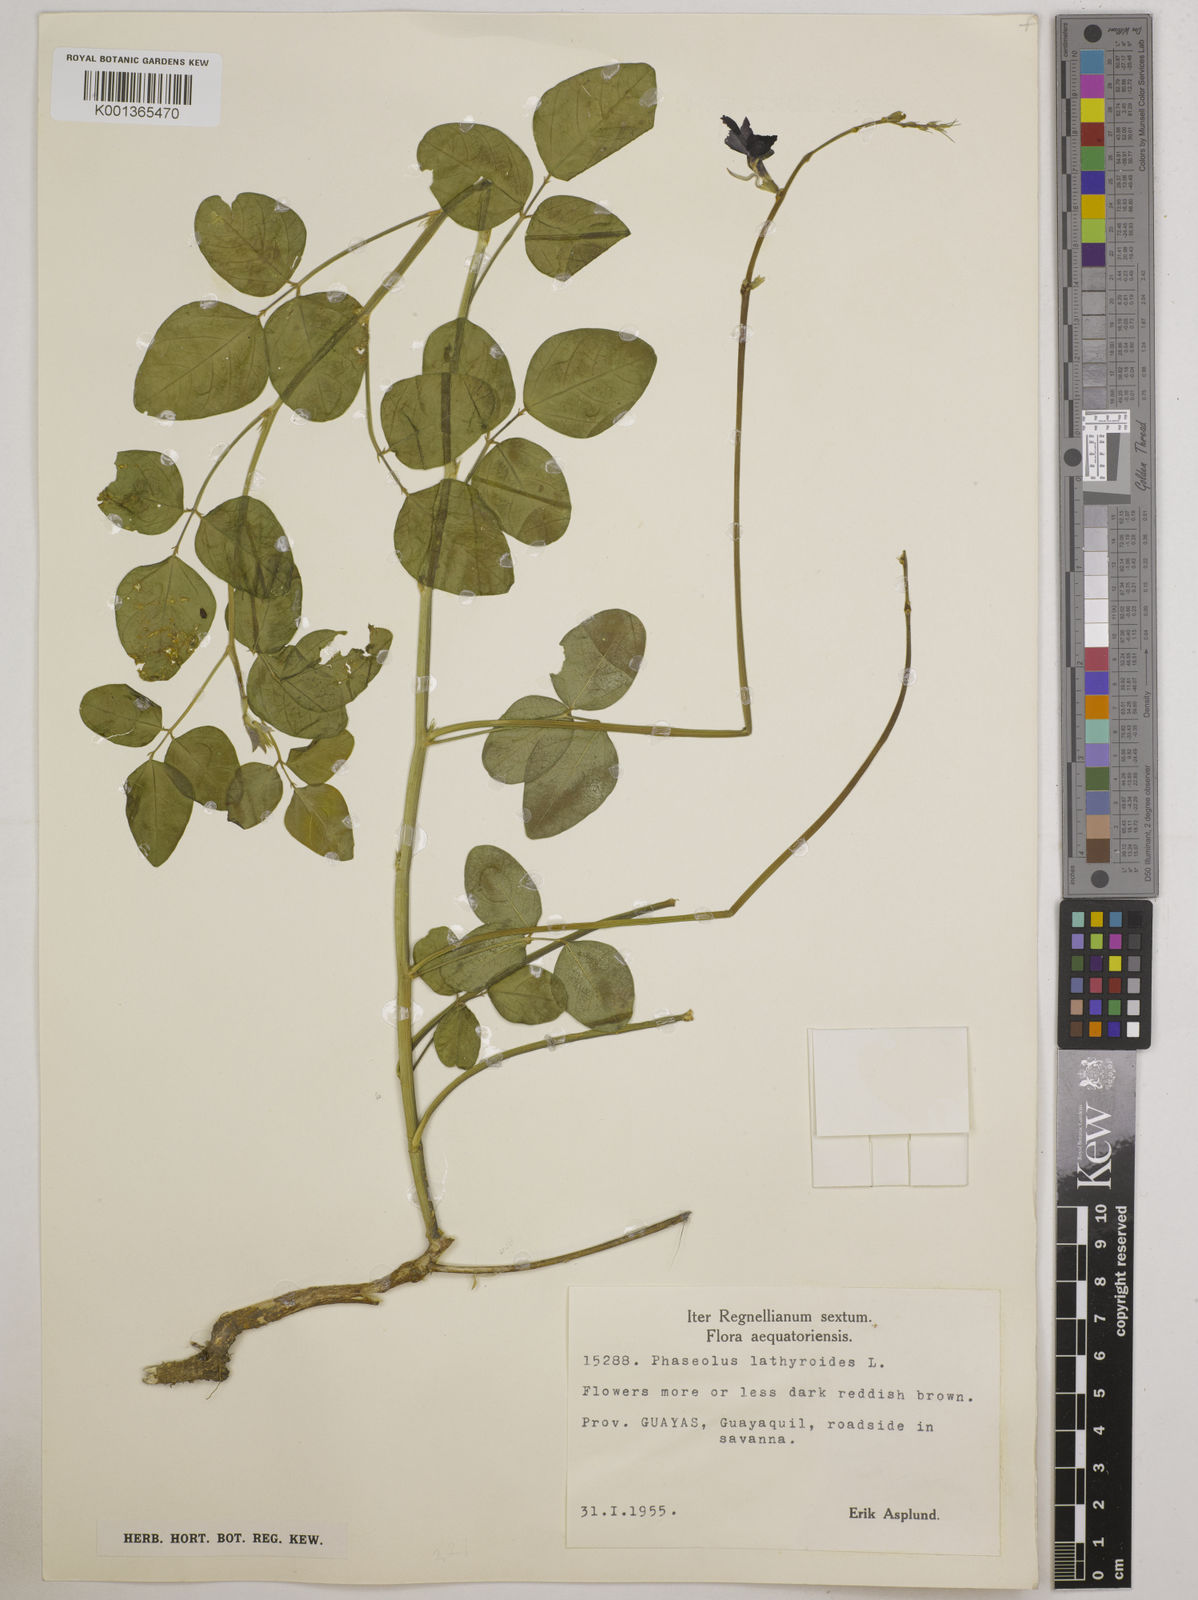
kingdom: Plantae
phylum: Tracheophyta
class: Magnoliopsida
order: Fabales
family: Fabaceae
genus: Macroptilium
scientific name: Macroptilium lathyroides
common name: Wild bushbean
